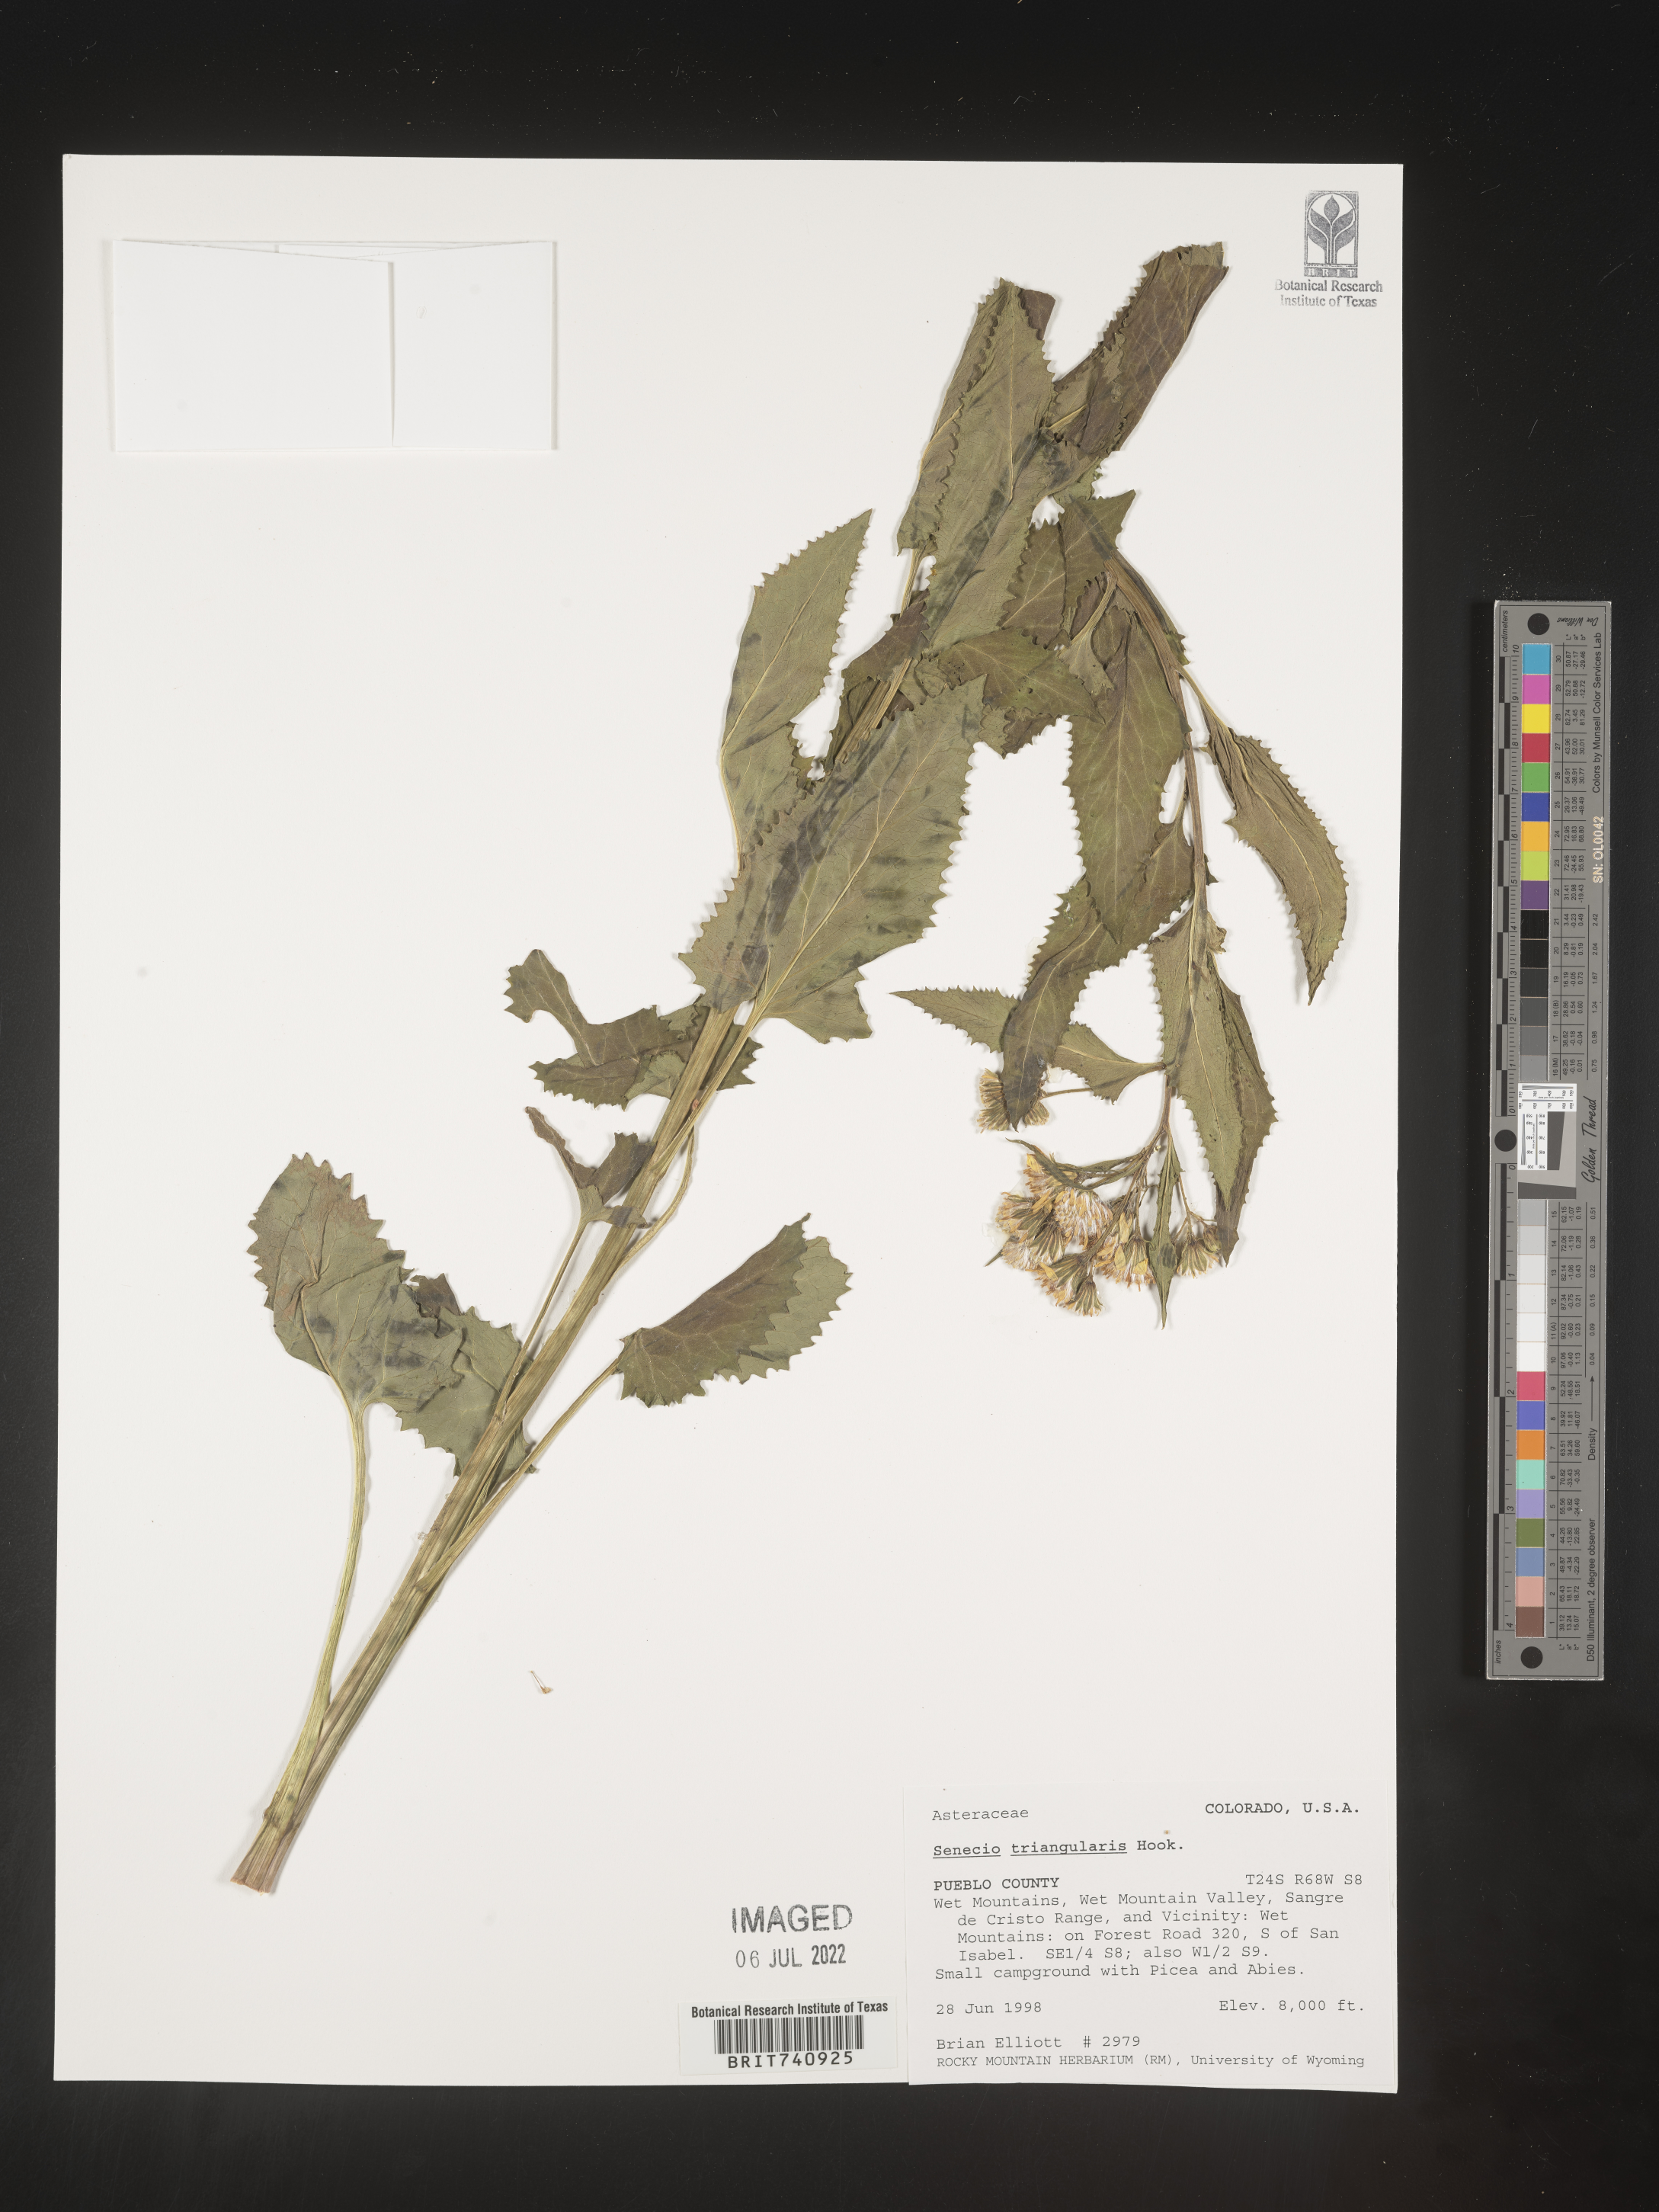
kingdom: Plantae
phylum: Tracheophyta
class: Magnoliopsida
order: Asterales
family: Asteraceae
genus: Senecio
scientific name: Senecio triangularis
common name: Arrowleaf butterweed
